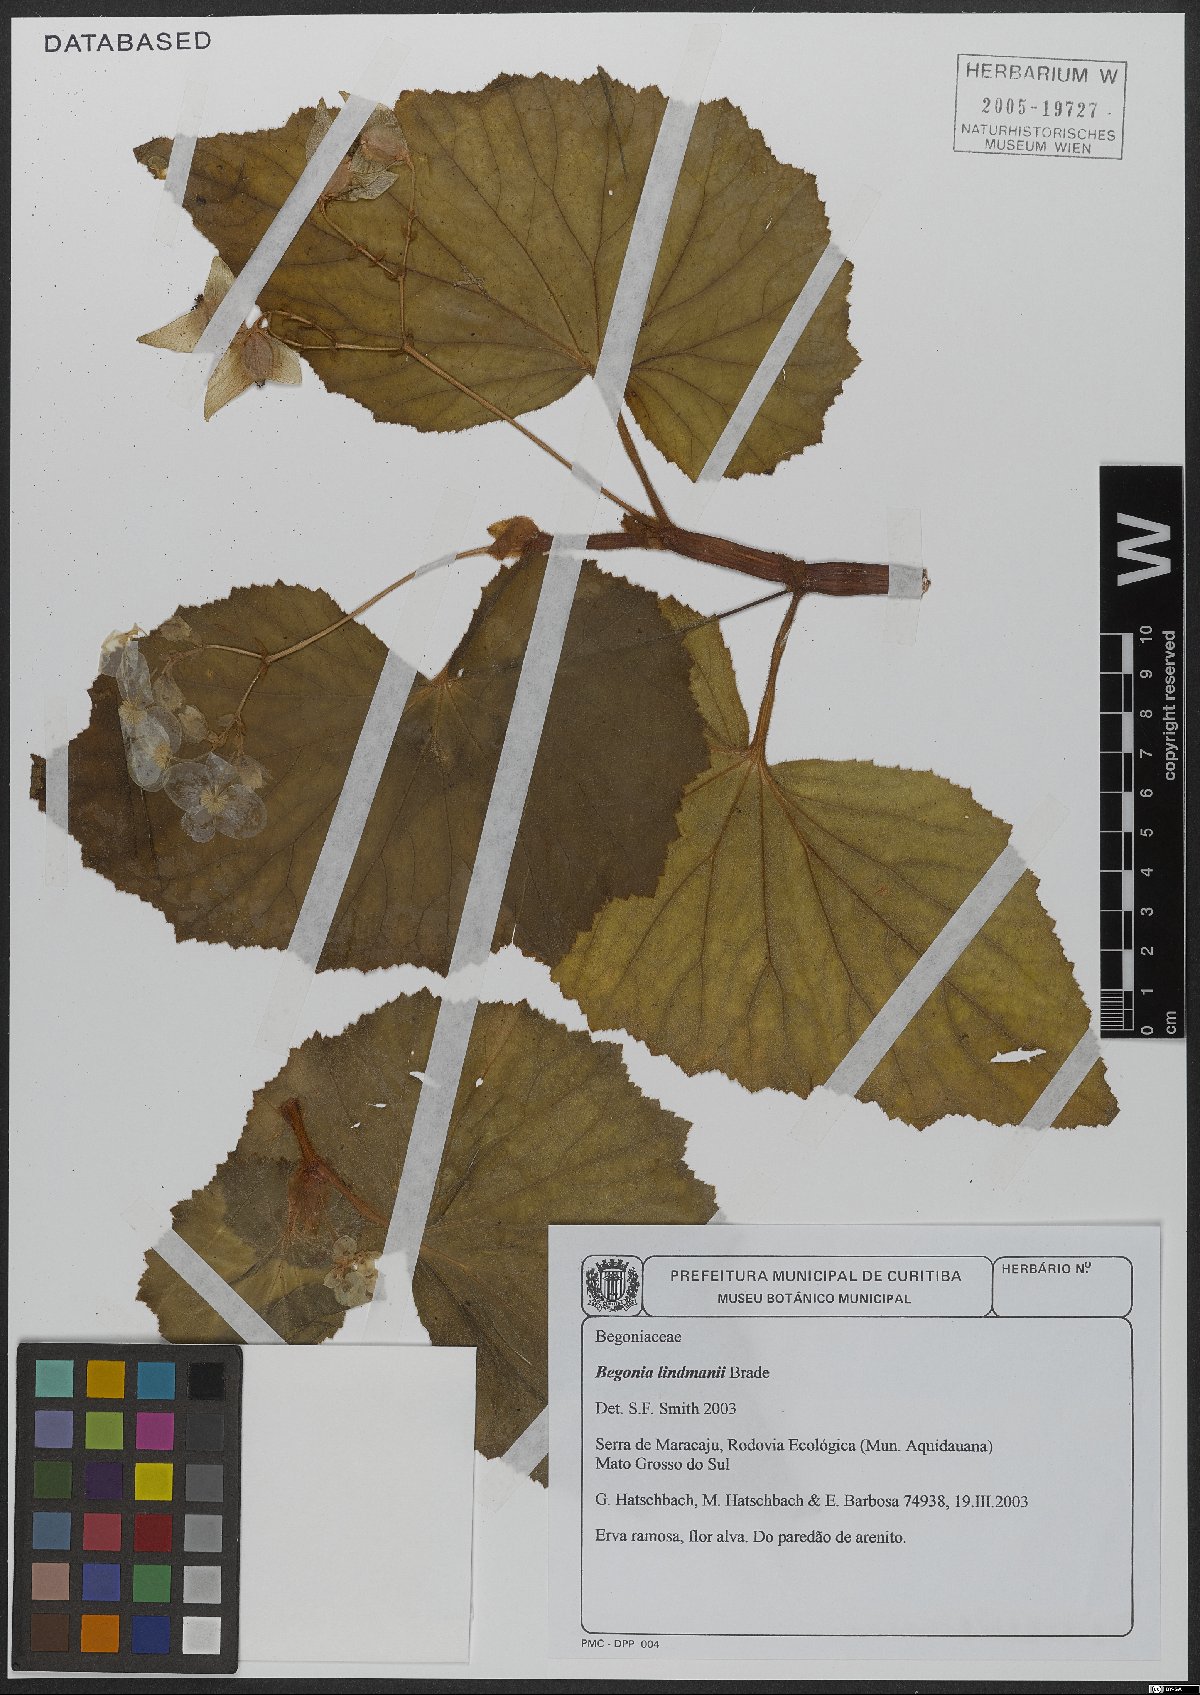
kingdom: Plantae
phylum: Tracheophyta
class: Magnoliopsida
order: Cucurbitales
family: Begoniaceae
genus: Begonia
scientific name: Begonia lindmanii
